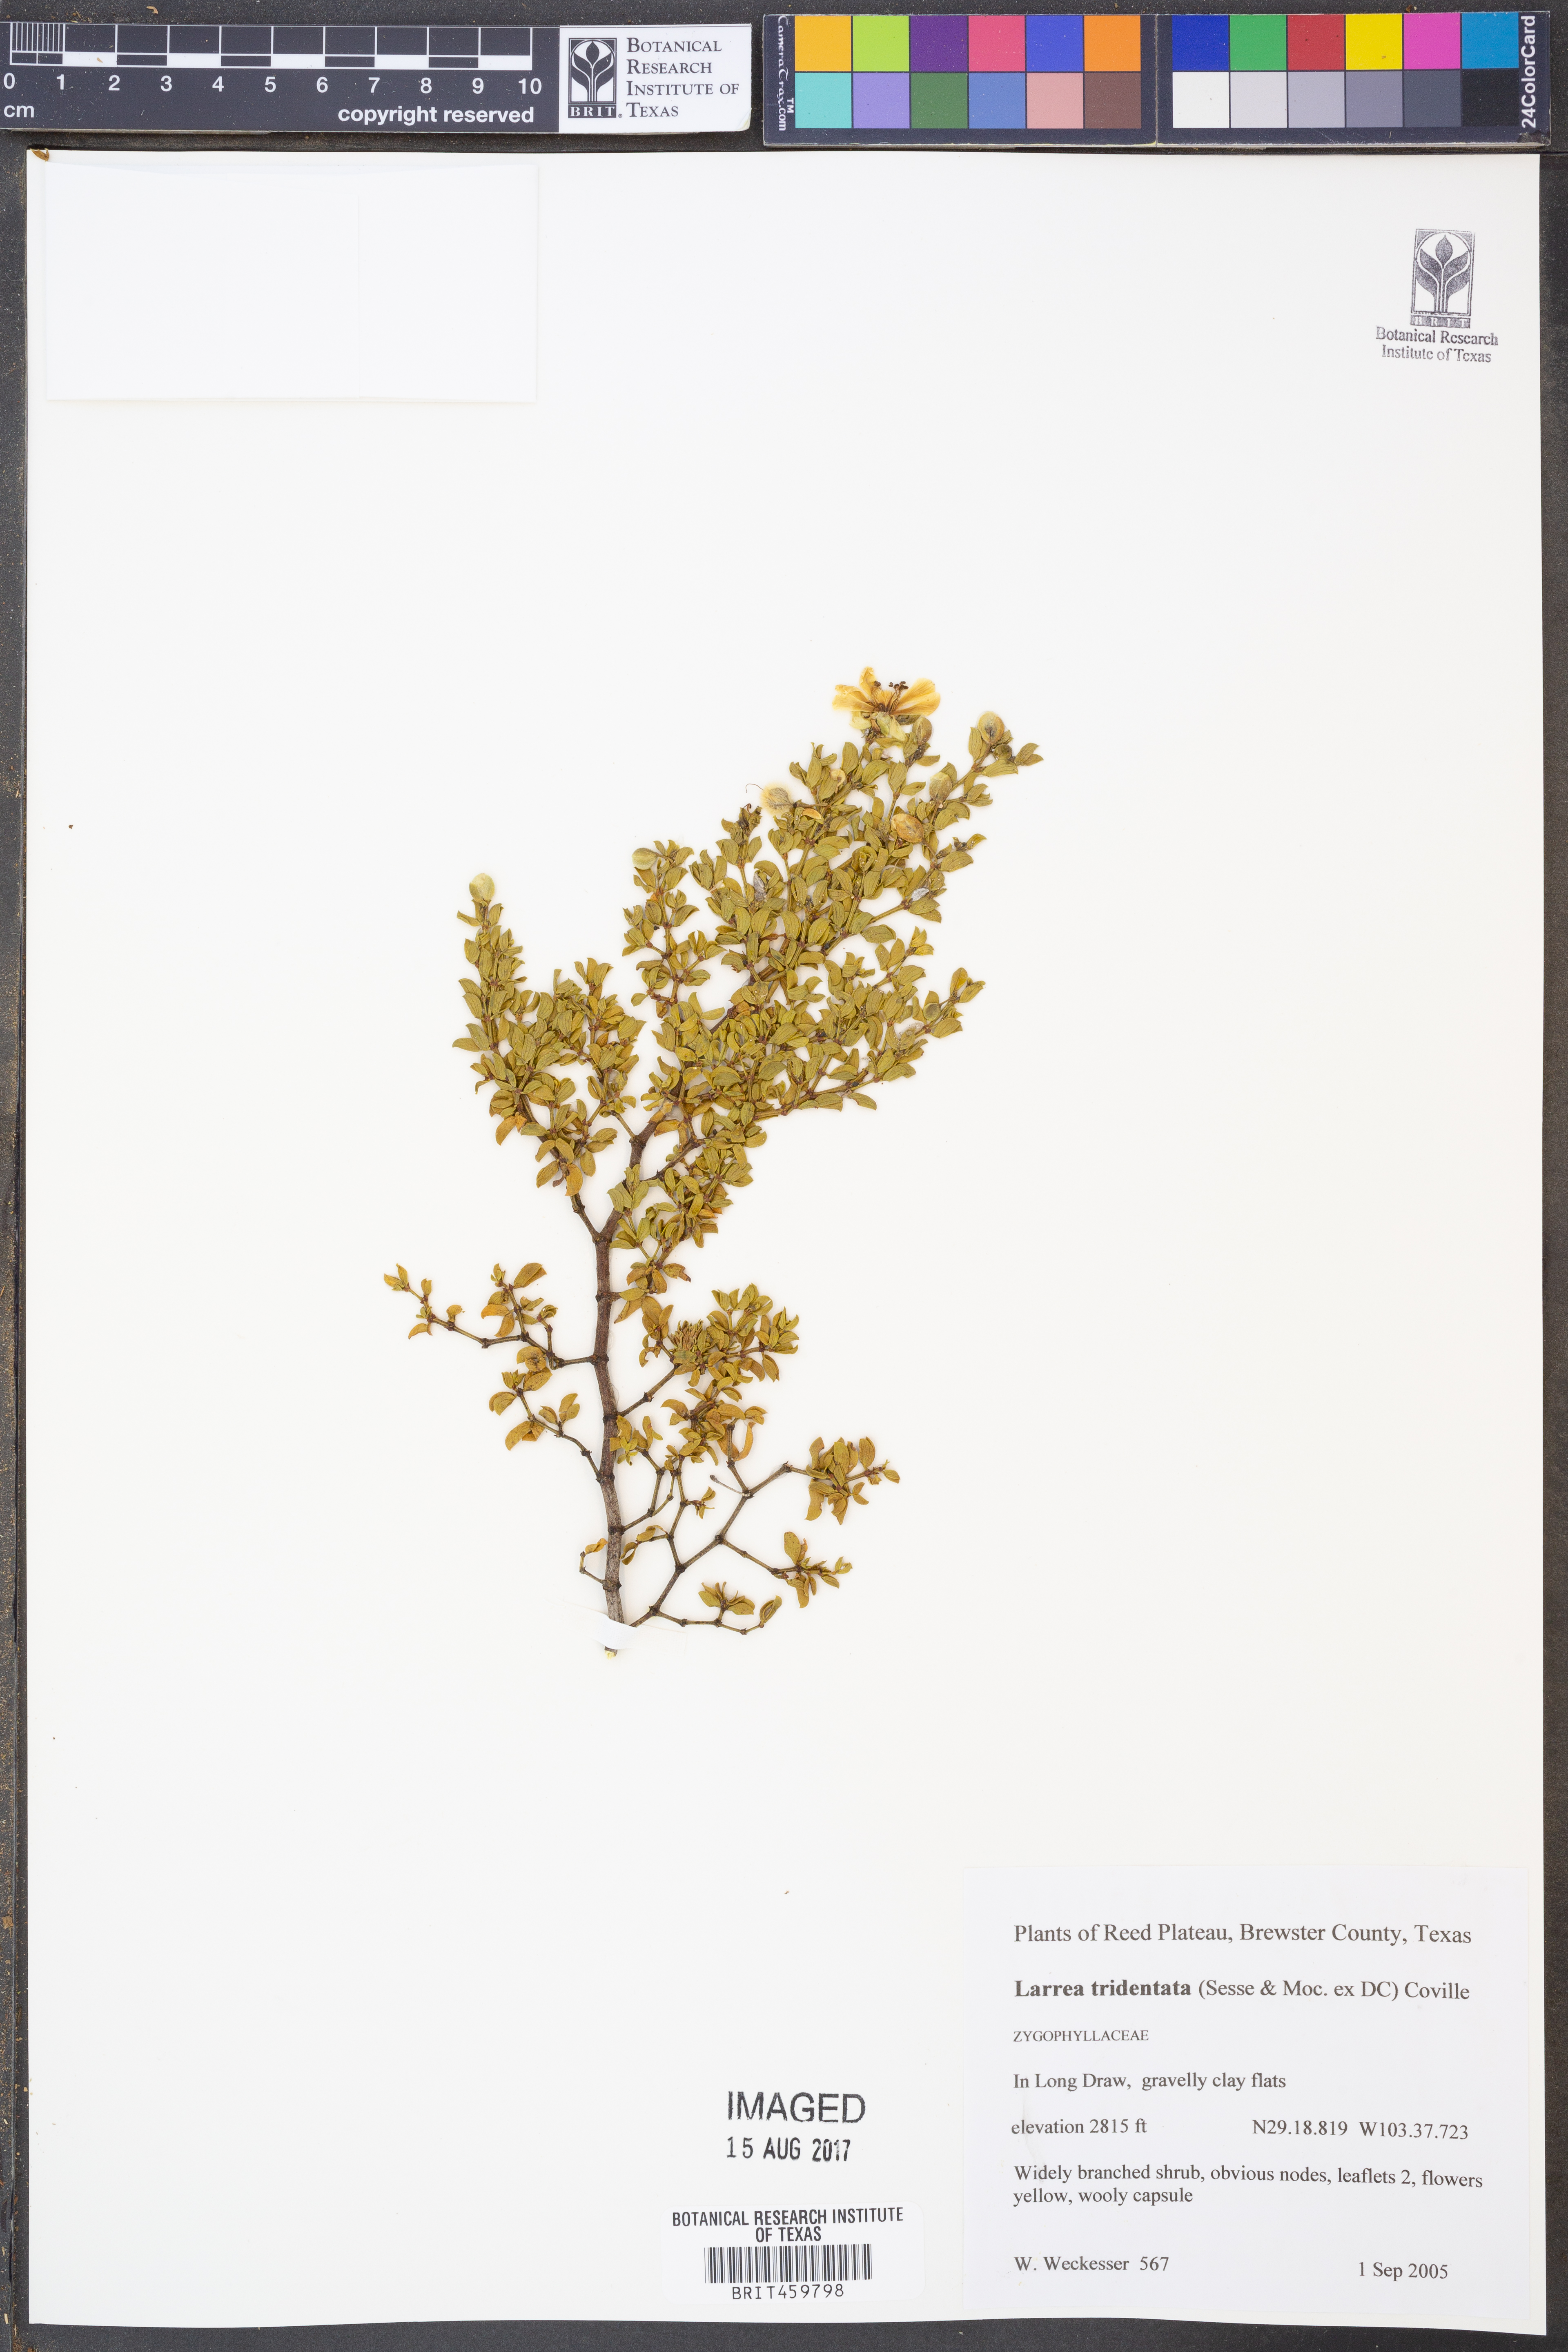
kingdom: Plantae
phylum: Tracheophyta
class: Magnoliopsida
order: Zygophyllales
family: Zygophyllaceae
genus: Larrea
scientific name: Larrea tridentata
